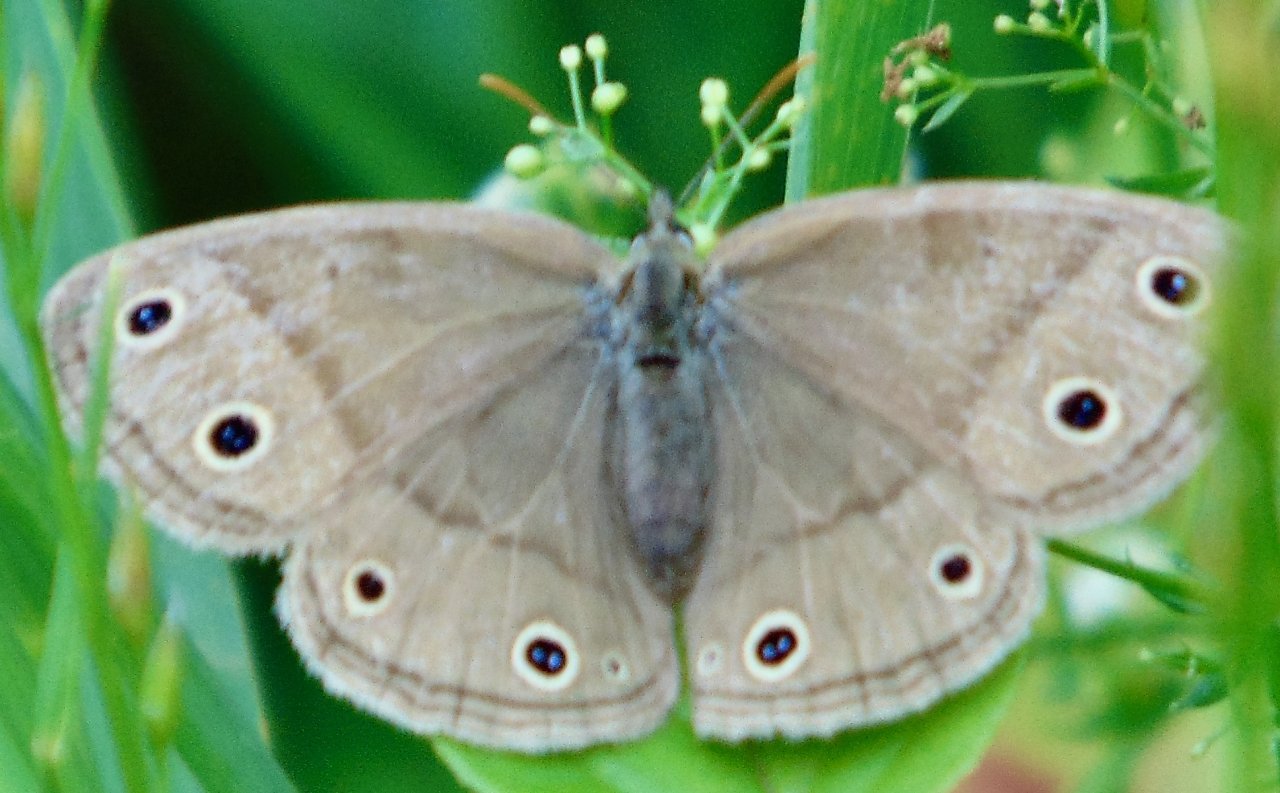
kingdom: Animalia
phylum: Arthropoda
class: Insecta
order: Lepidoptera
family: Nymphalidae
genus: Euptychia
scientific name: Euptychia cymela
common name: Little Wood Satyr
